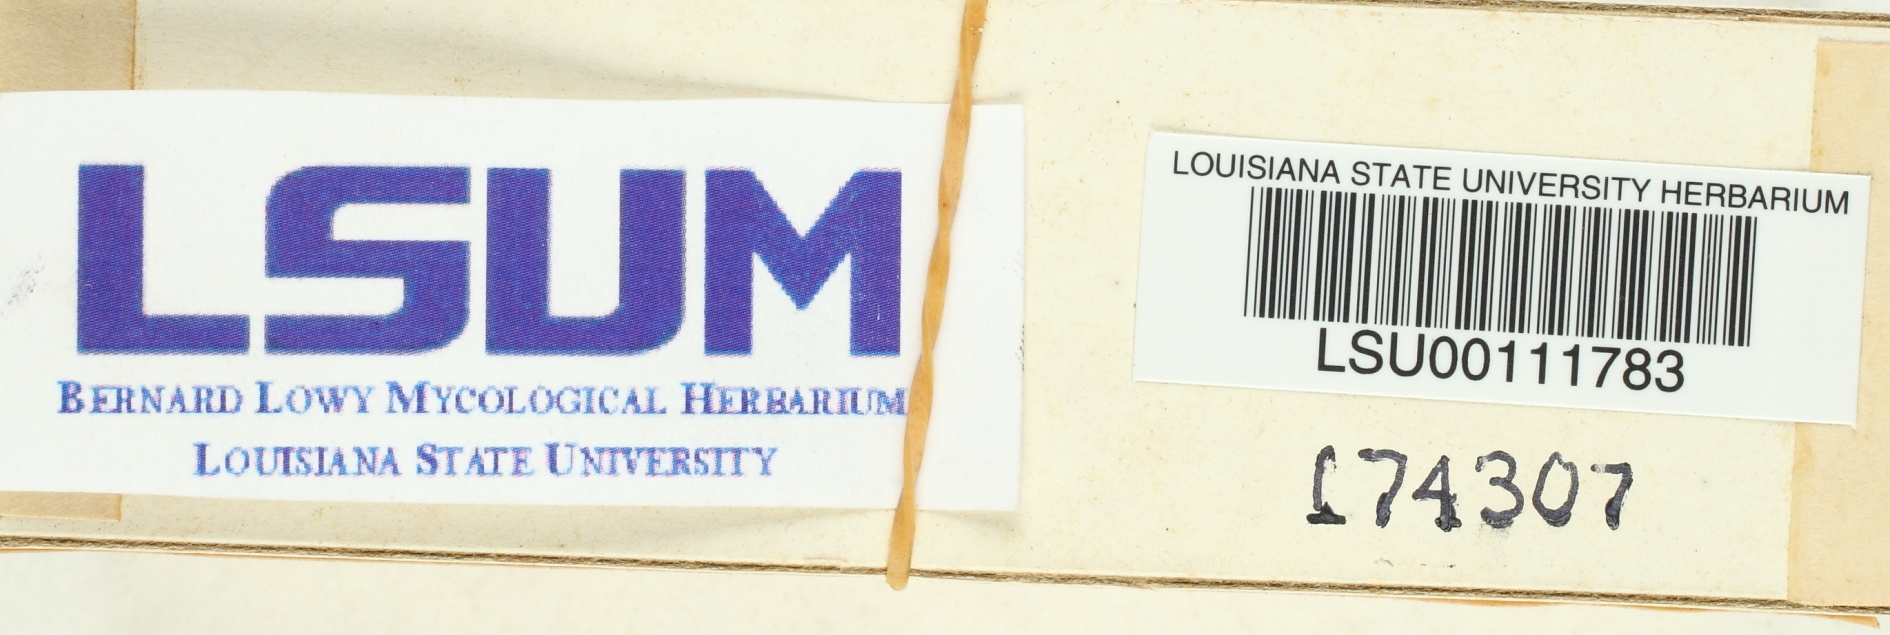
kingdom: Fungi
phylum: Basidiomycota
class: Agaricomycetes
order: Gloeophyllales
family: Gloeophyllaceae
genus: Neolentinus
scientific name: Neolentinus lepideus
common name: Scaly sawgill
